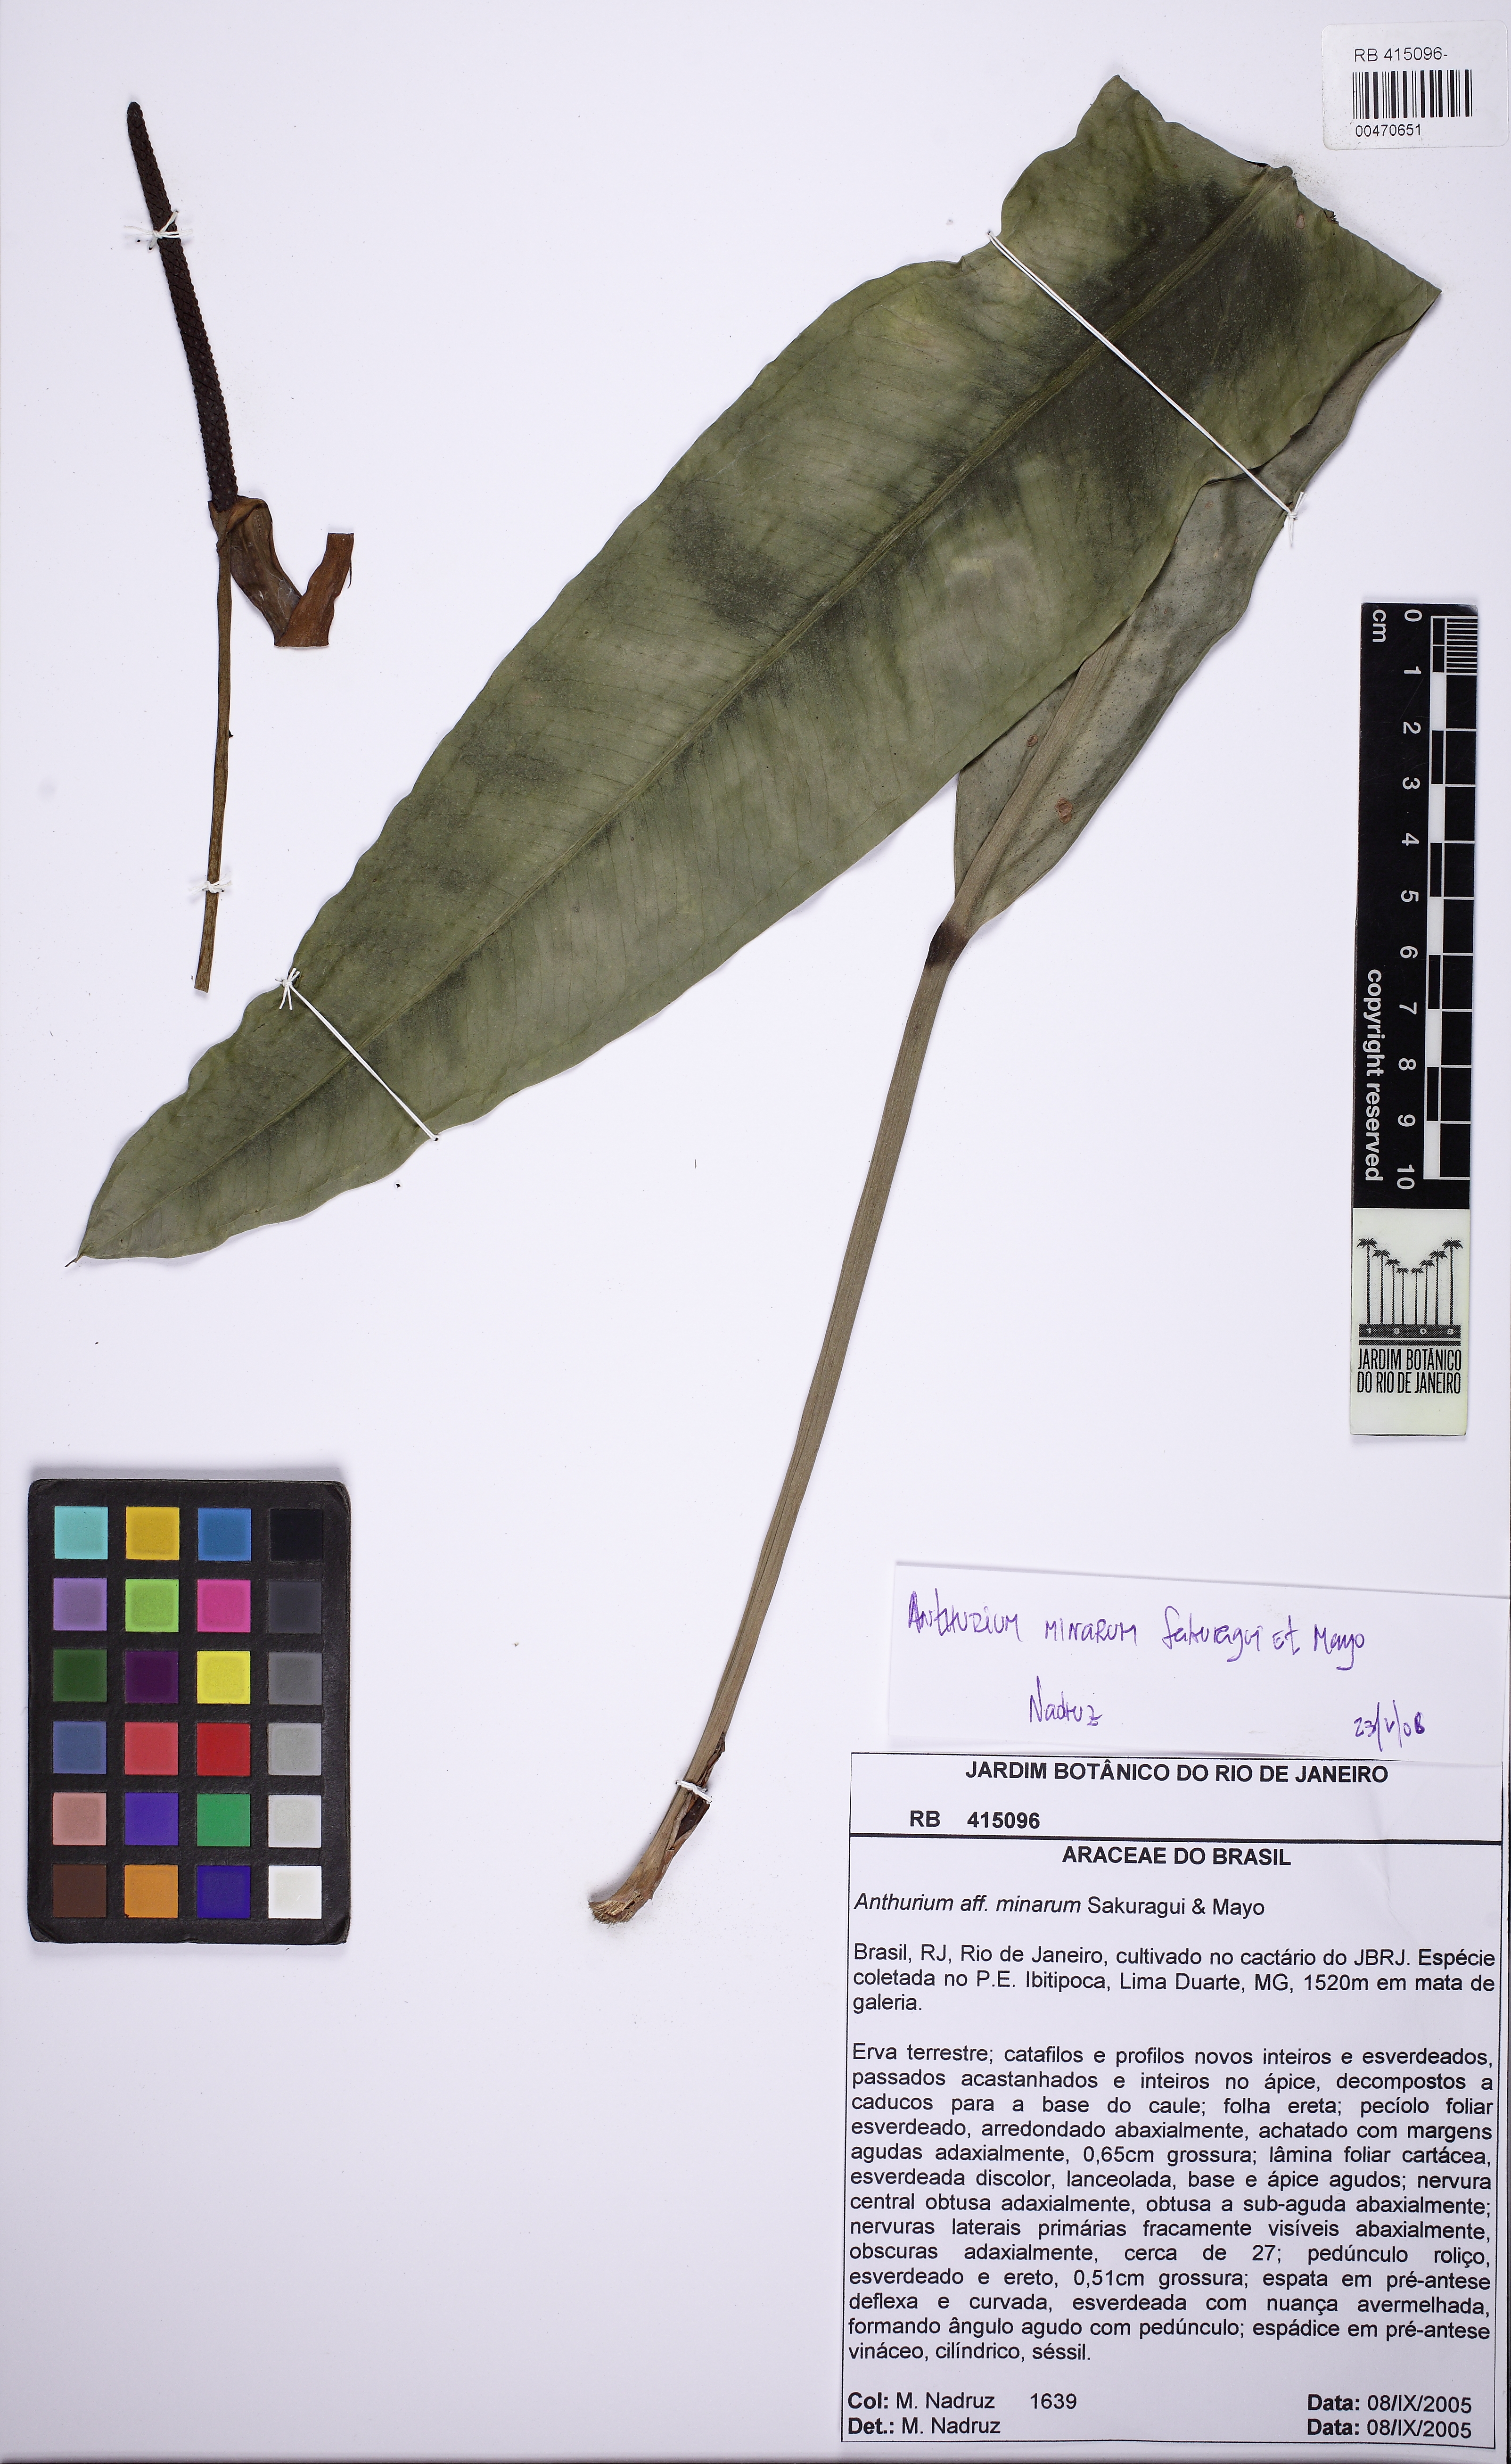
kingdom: Plantae
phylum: Tracheophyta
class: Liliopsida
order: Alismatales
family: Araceae
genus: Anthurium
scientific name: Anthurium minarum
